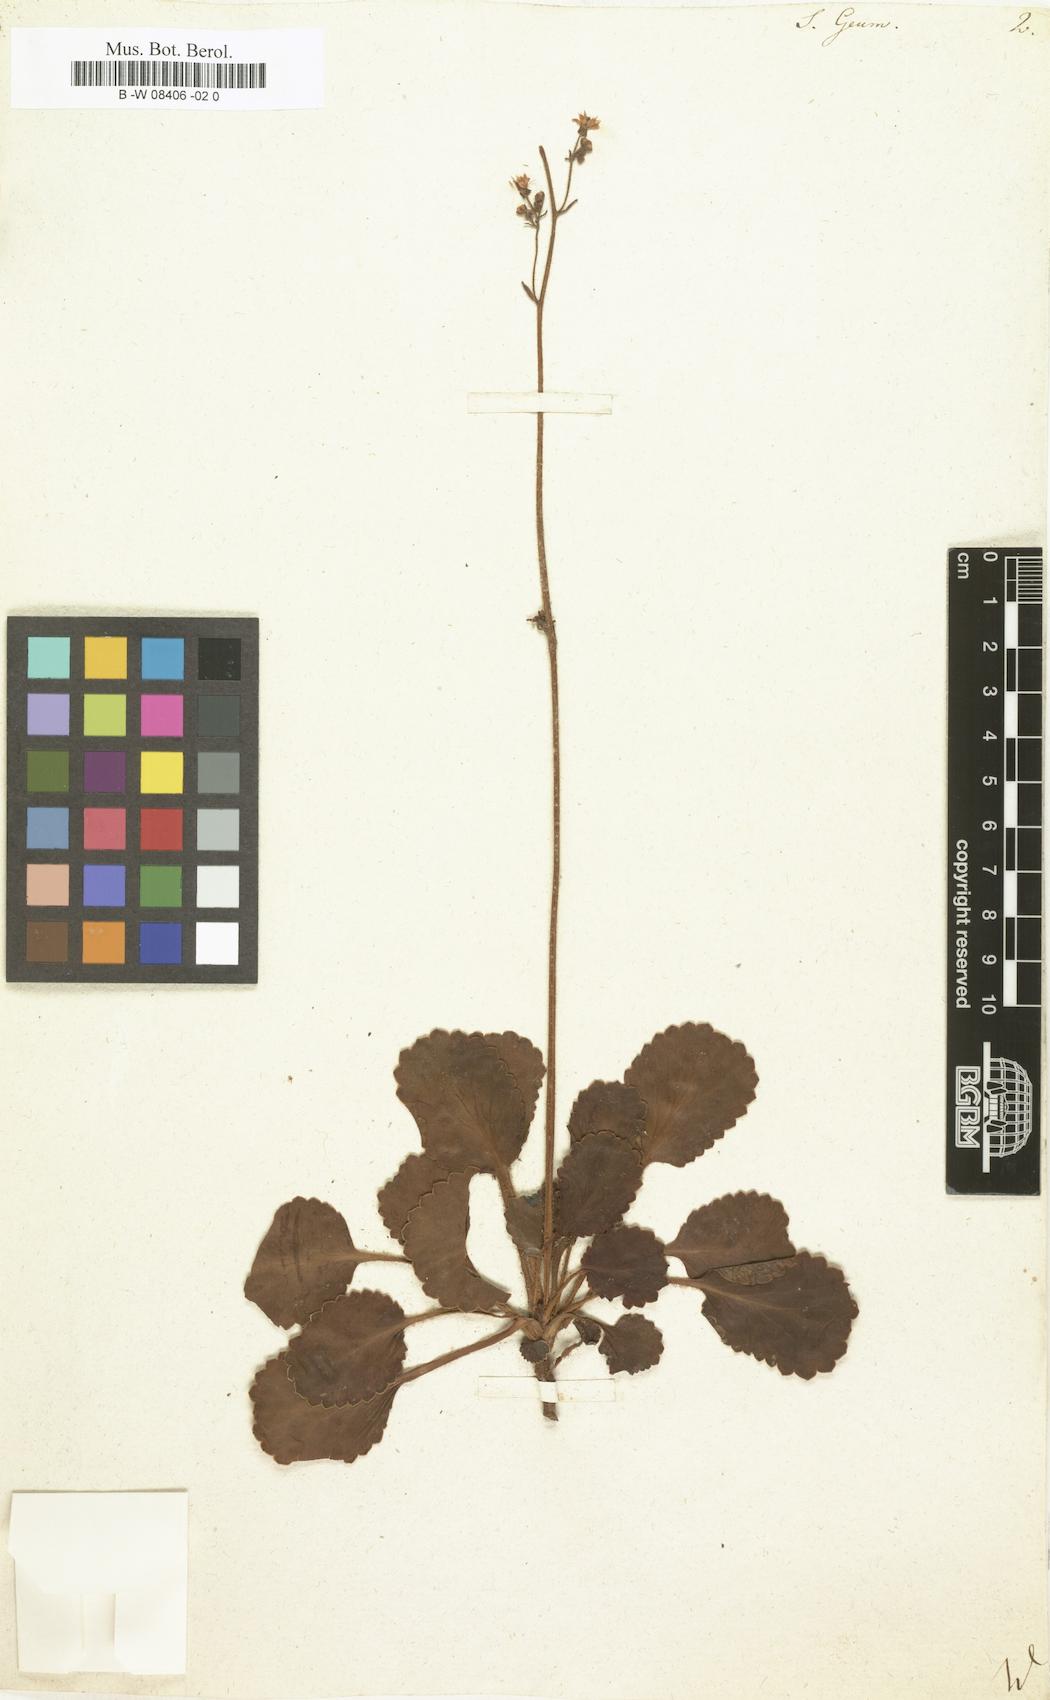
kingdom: Plantae
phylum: Tracheophyta
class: Magnoliopsida
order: Saxifragales
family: Saxifragaceae
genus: Saxifraga
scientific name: Saxifraga geum
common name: Geum saxifrage
